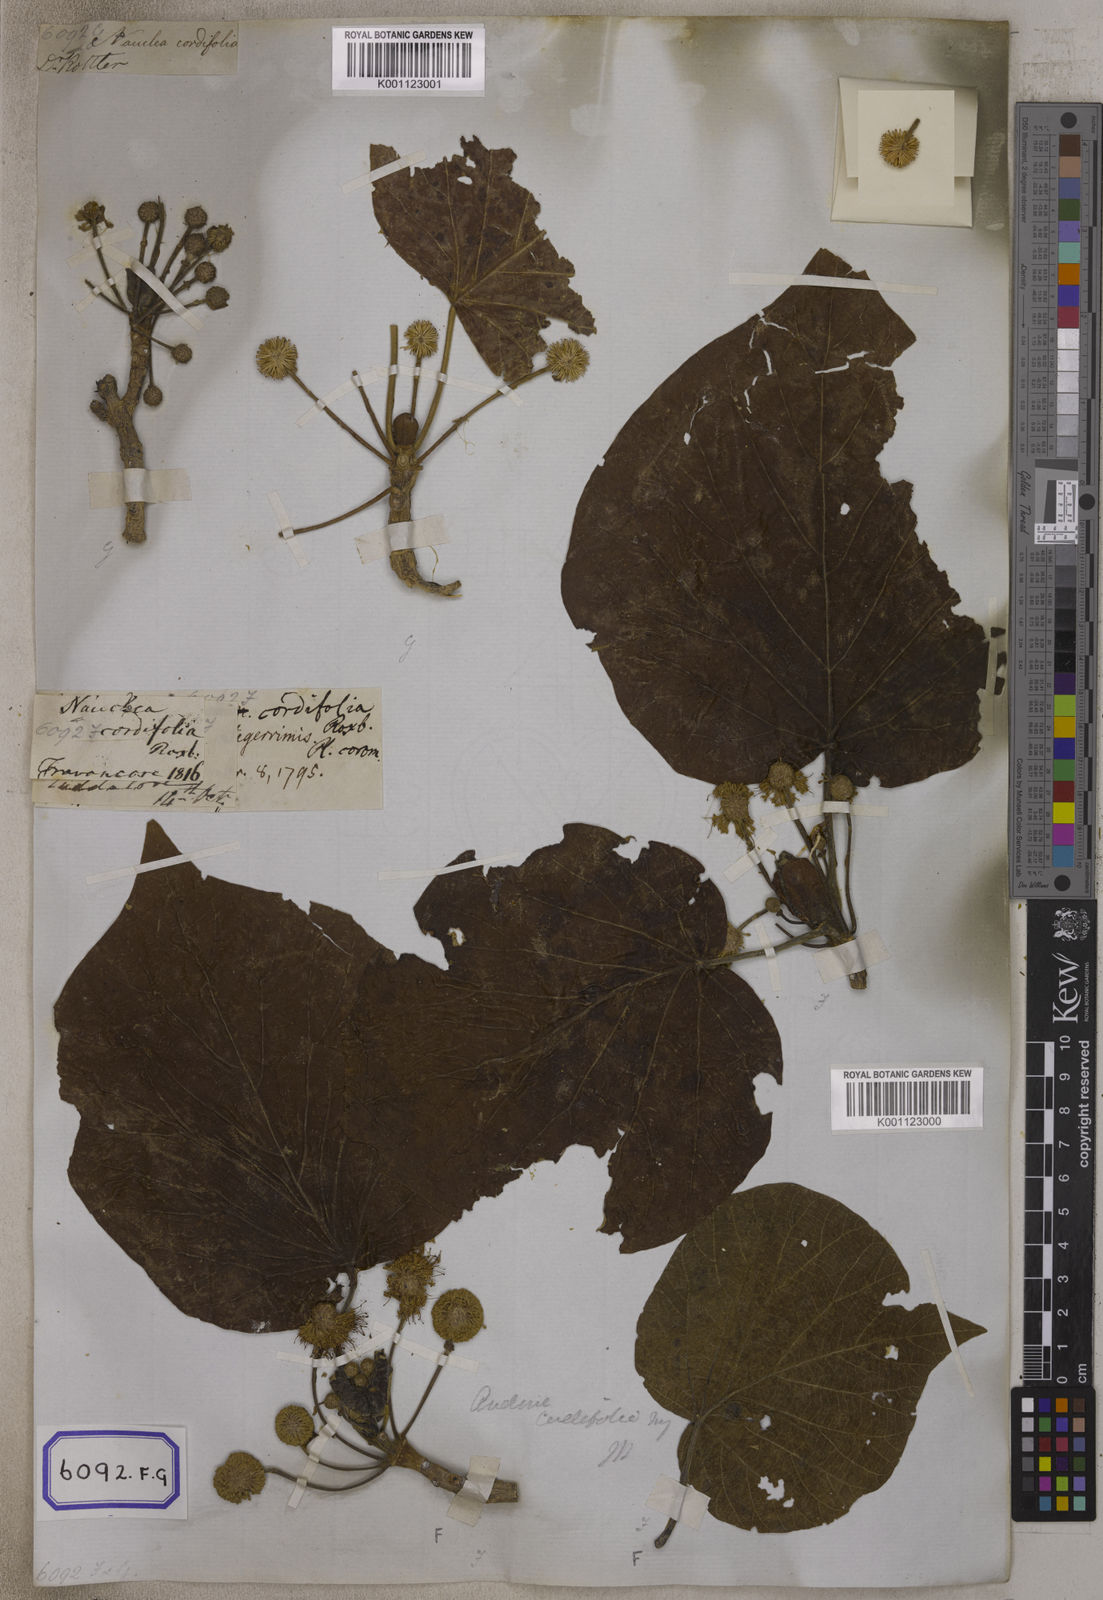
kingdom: Plantae
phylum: Tracheophyta
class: Magnoliopsida
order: Gentianales
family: Rubiaceae
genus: Adina
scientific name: Adina cordifolia
